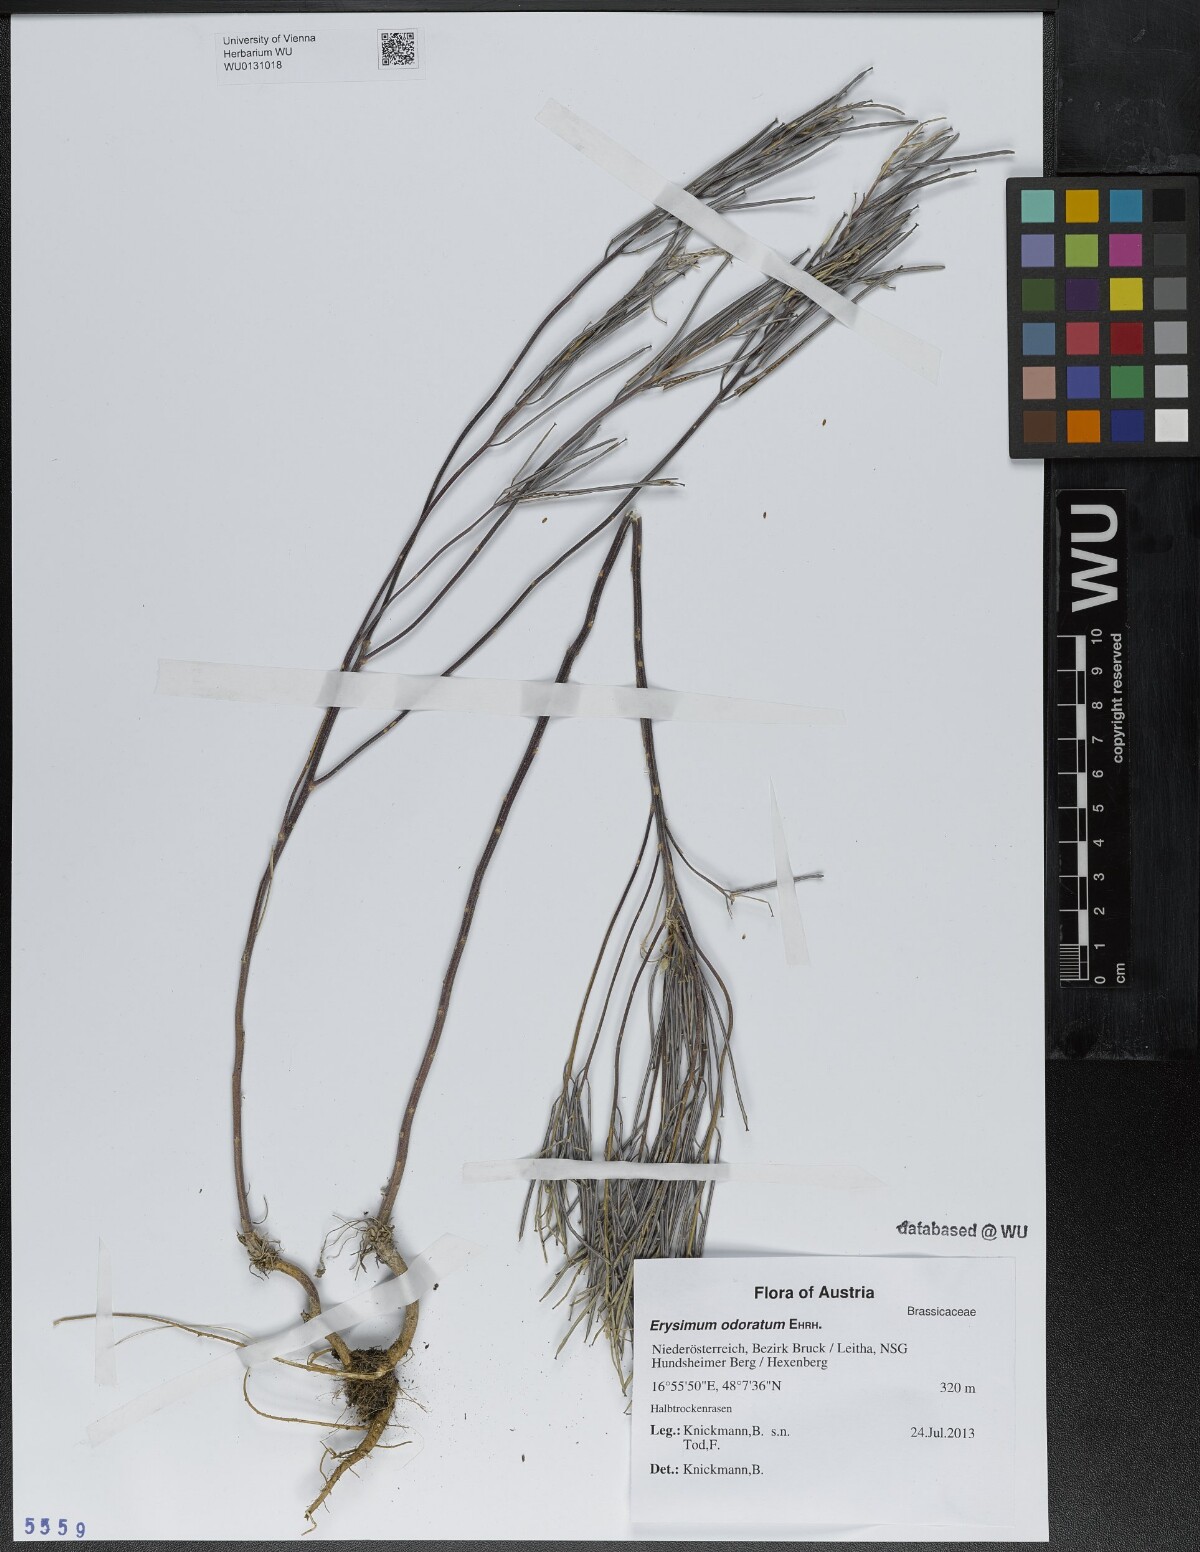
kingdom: Plantae
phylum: Tracheophyta
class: Magnoliopsida
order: Brassicales
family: Brassicaceae
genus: Erysimum
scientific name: Erysimum odoratum
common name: Smelly wallflower
